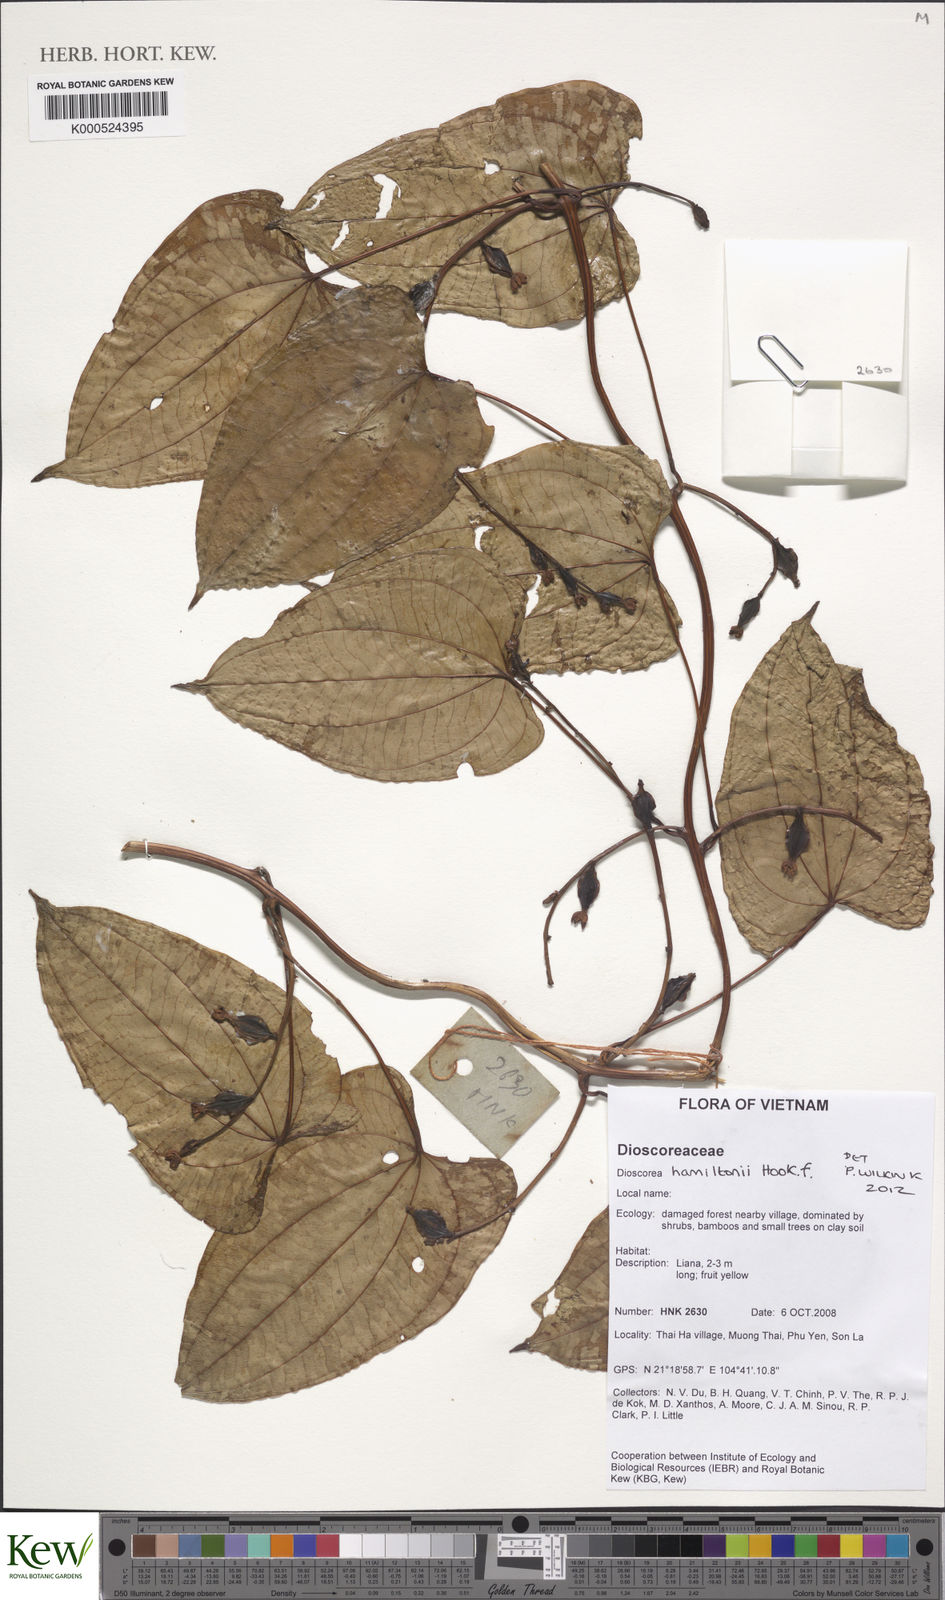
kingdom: Plantae
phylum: Tracheophyta
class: Liliopsida
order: Dioscoreales
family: Dioscoreaceae
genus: Dioscorea
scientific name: Dioscorea hamiltonii
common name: Mountain yam
